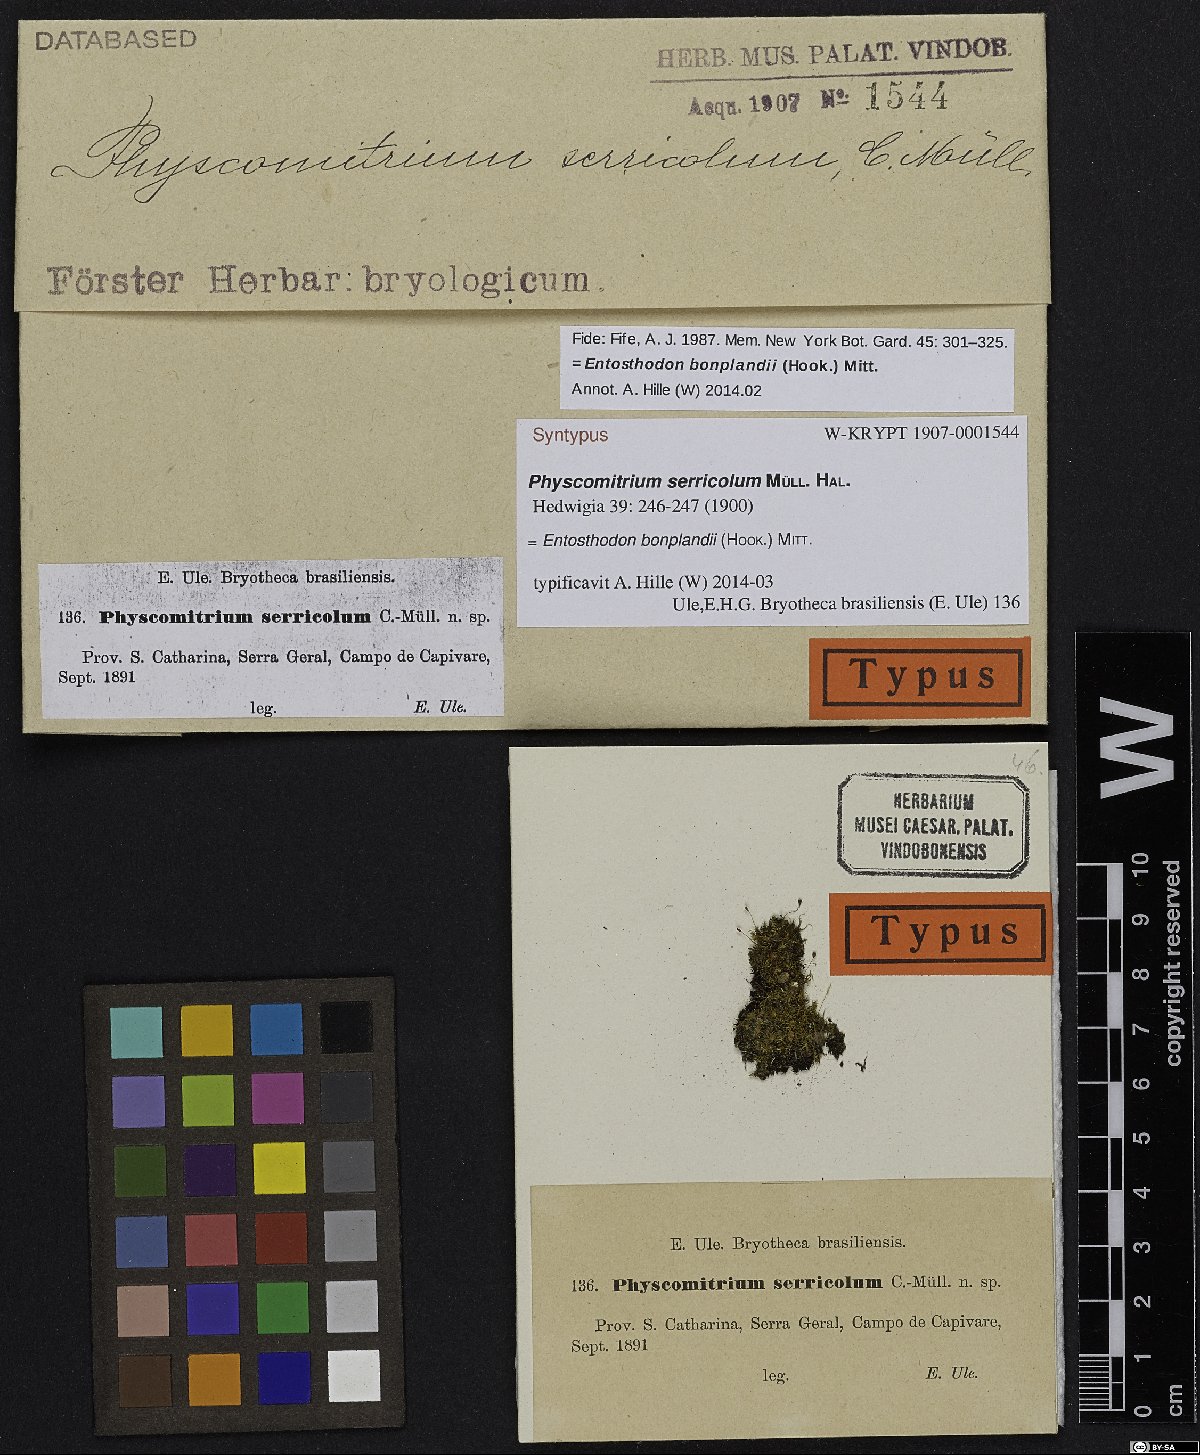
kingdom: Plantae
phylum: Bryophyta
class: Bryopsida
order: Funariales
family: Funariaceae
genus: Entosthodon
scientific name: Entosthodon bonplandii
